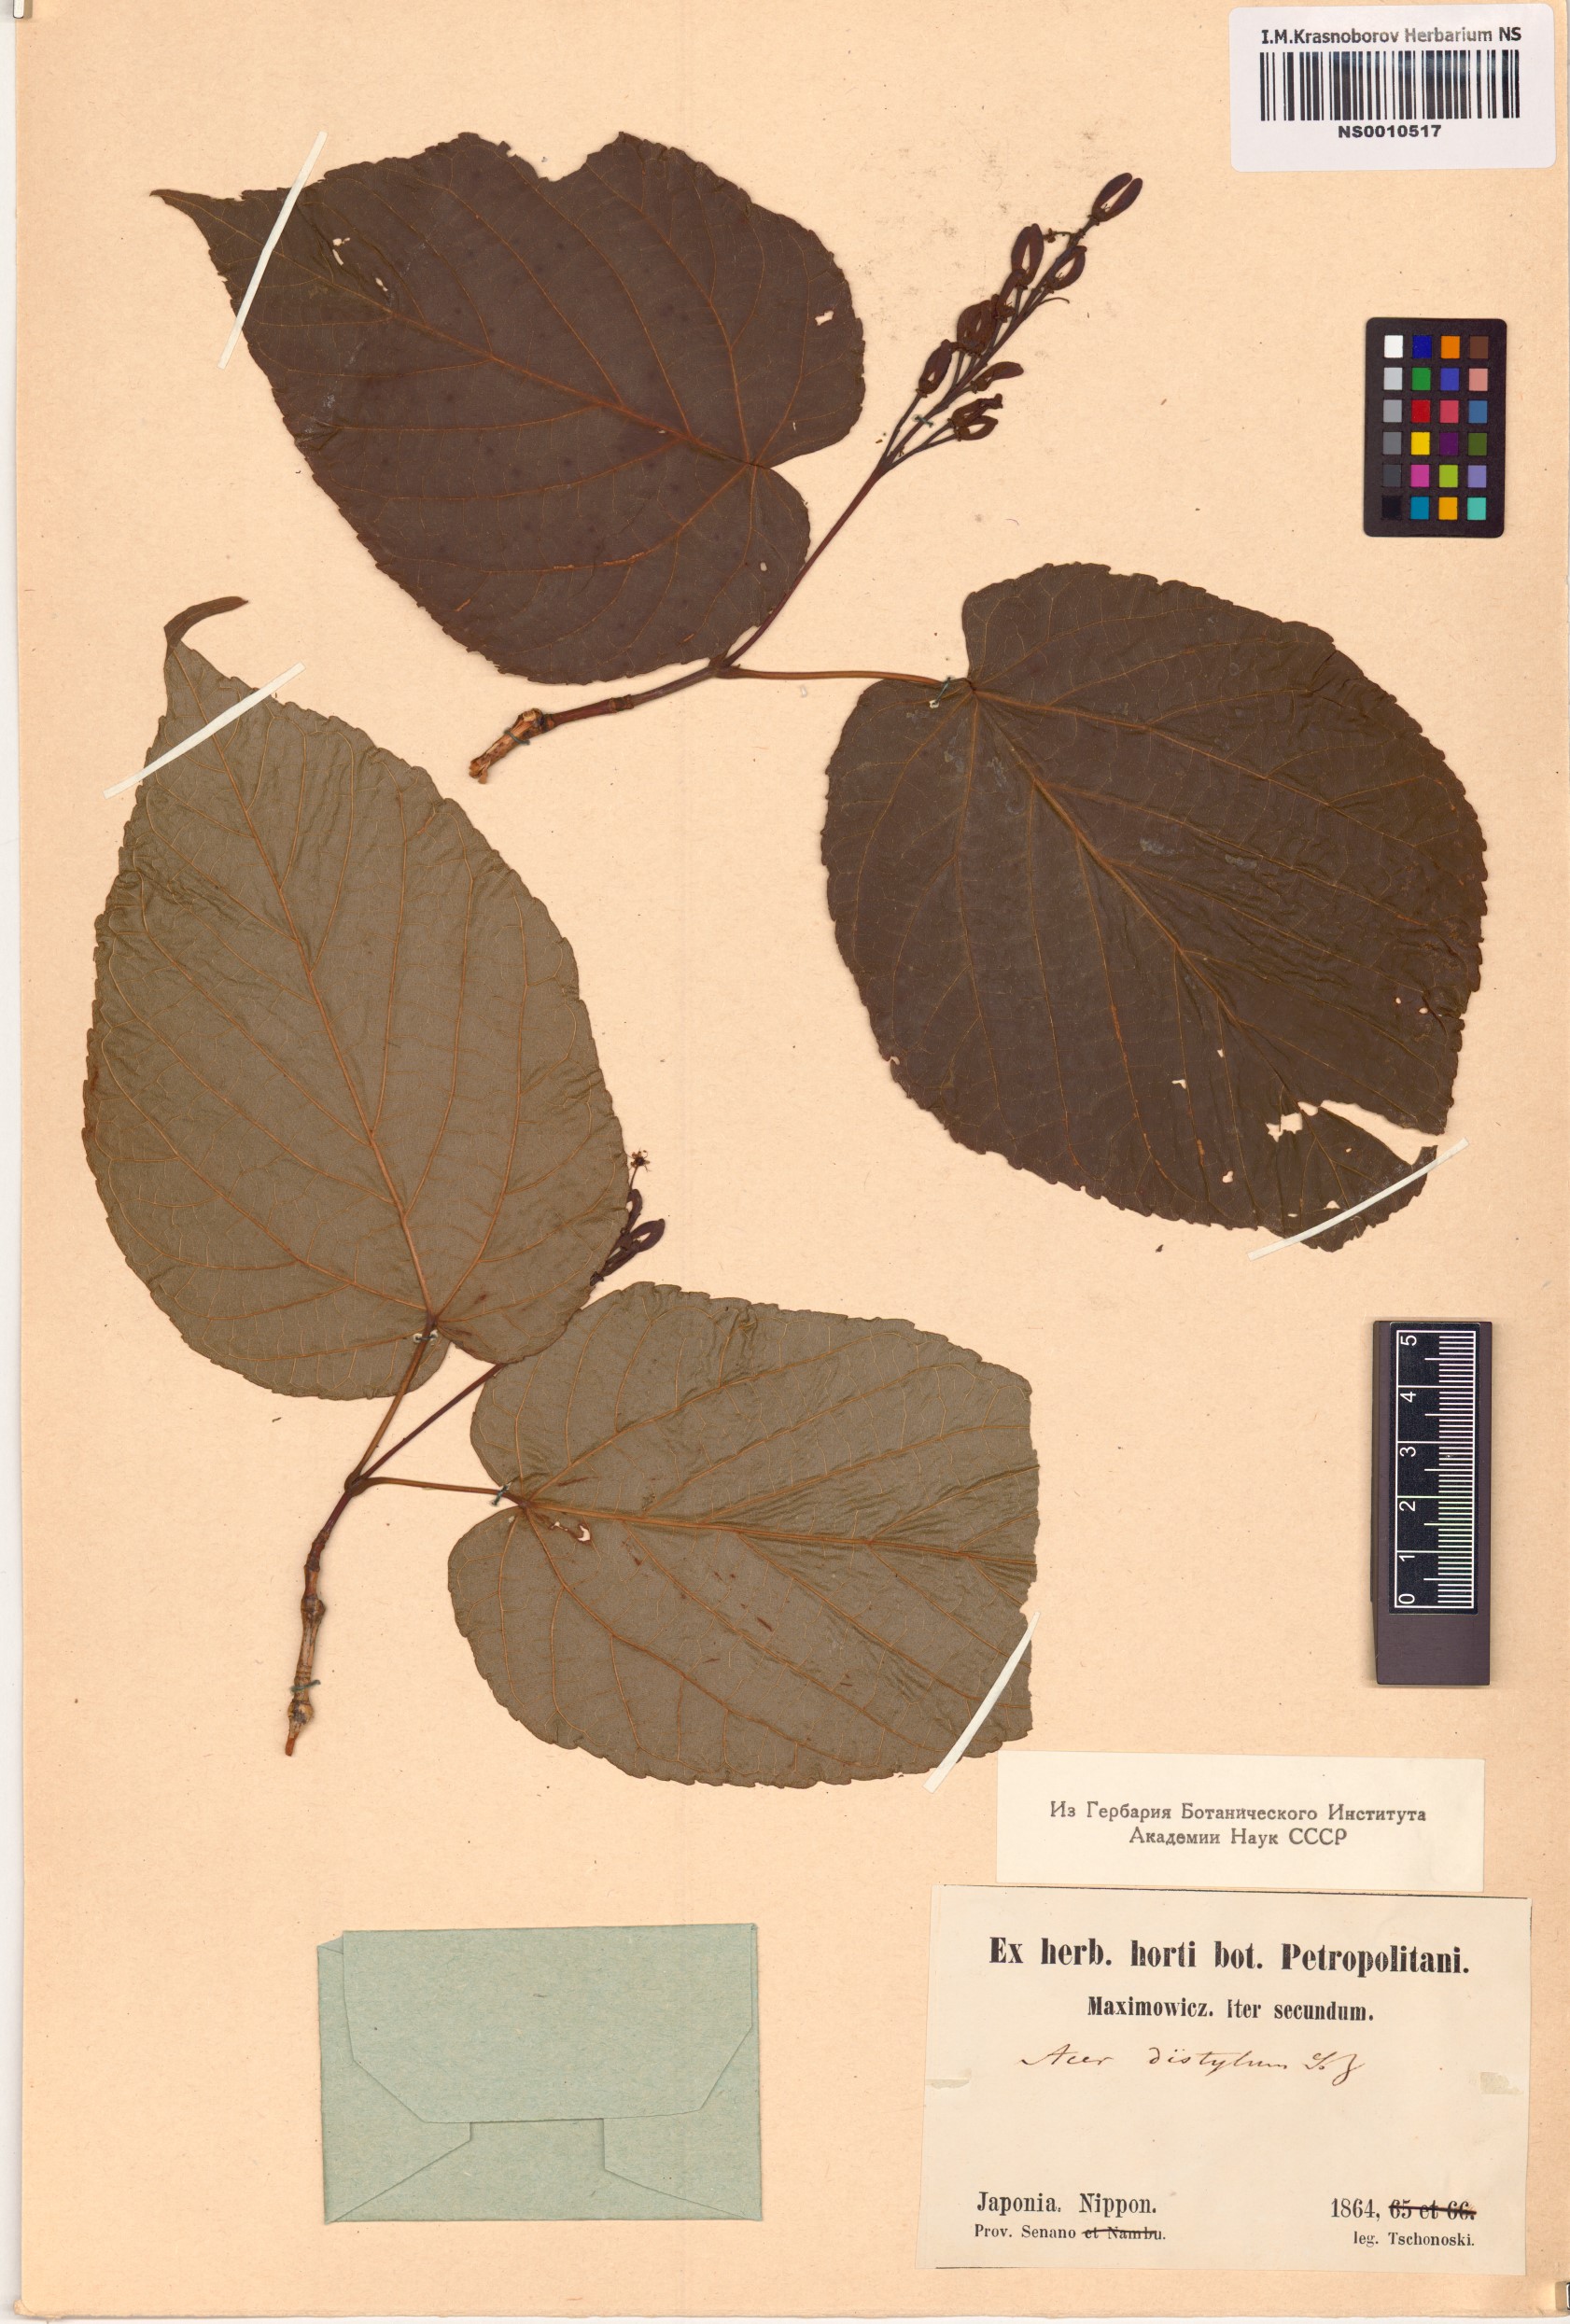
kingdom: Plantae
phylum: Tracheophyta
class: Magnoliopsida
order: Sapindales
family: Sapindaceae
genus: Acer
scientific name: Acer distylum
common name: Lime-leaved maple
